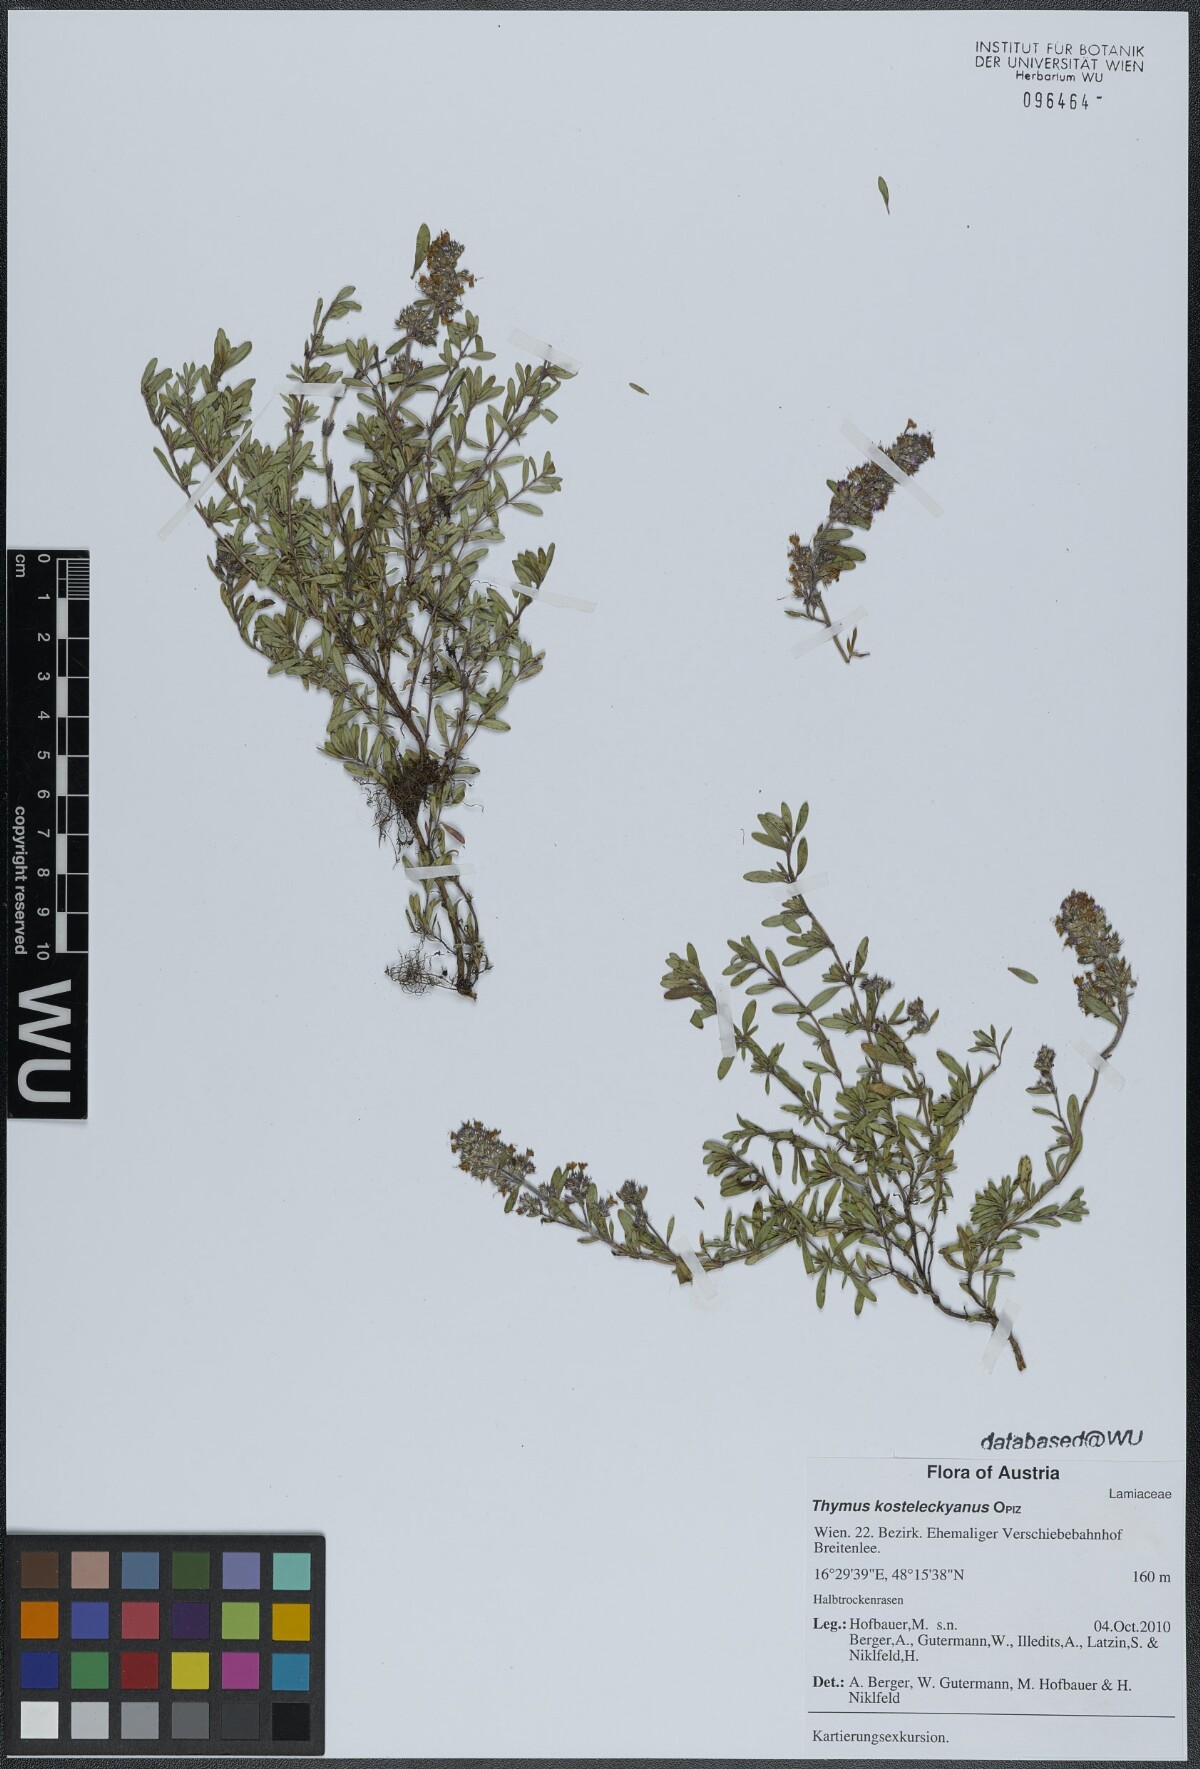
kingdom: Plantae
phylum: Tracheophyta
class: Magnoliopsida
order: Lamiales
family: Lamiaceae
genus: Thymus
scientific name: Thymus pannonicus
